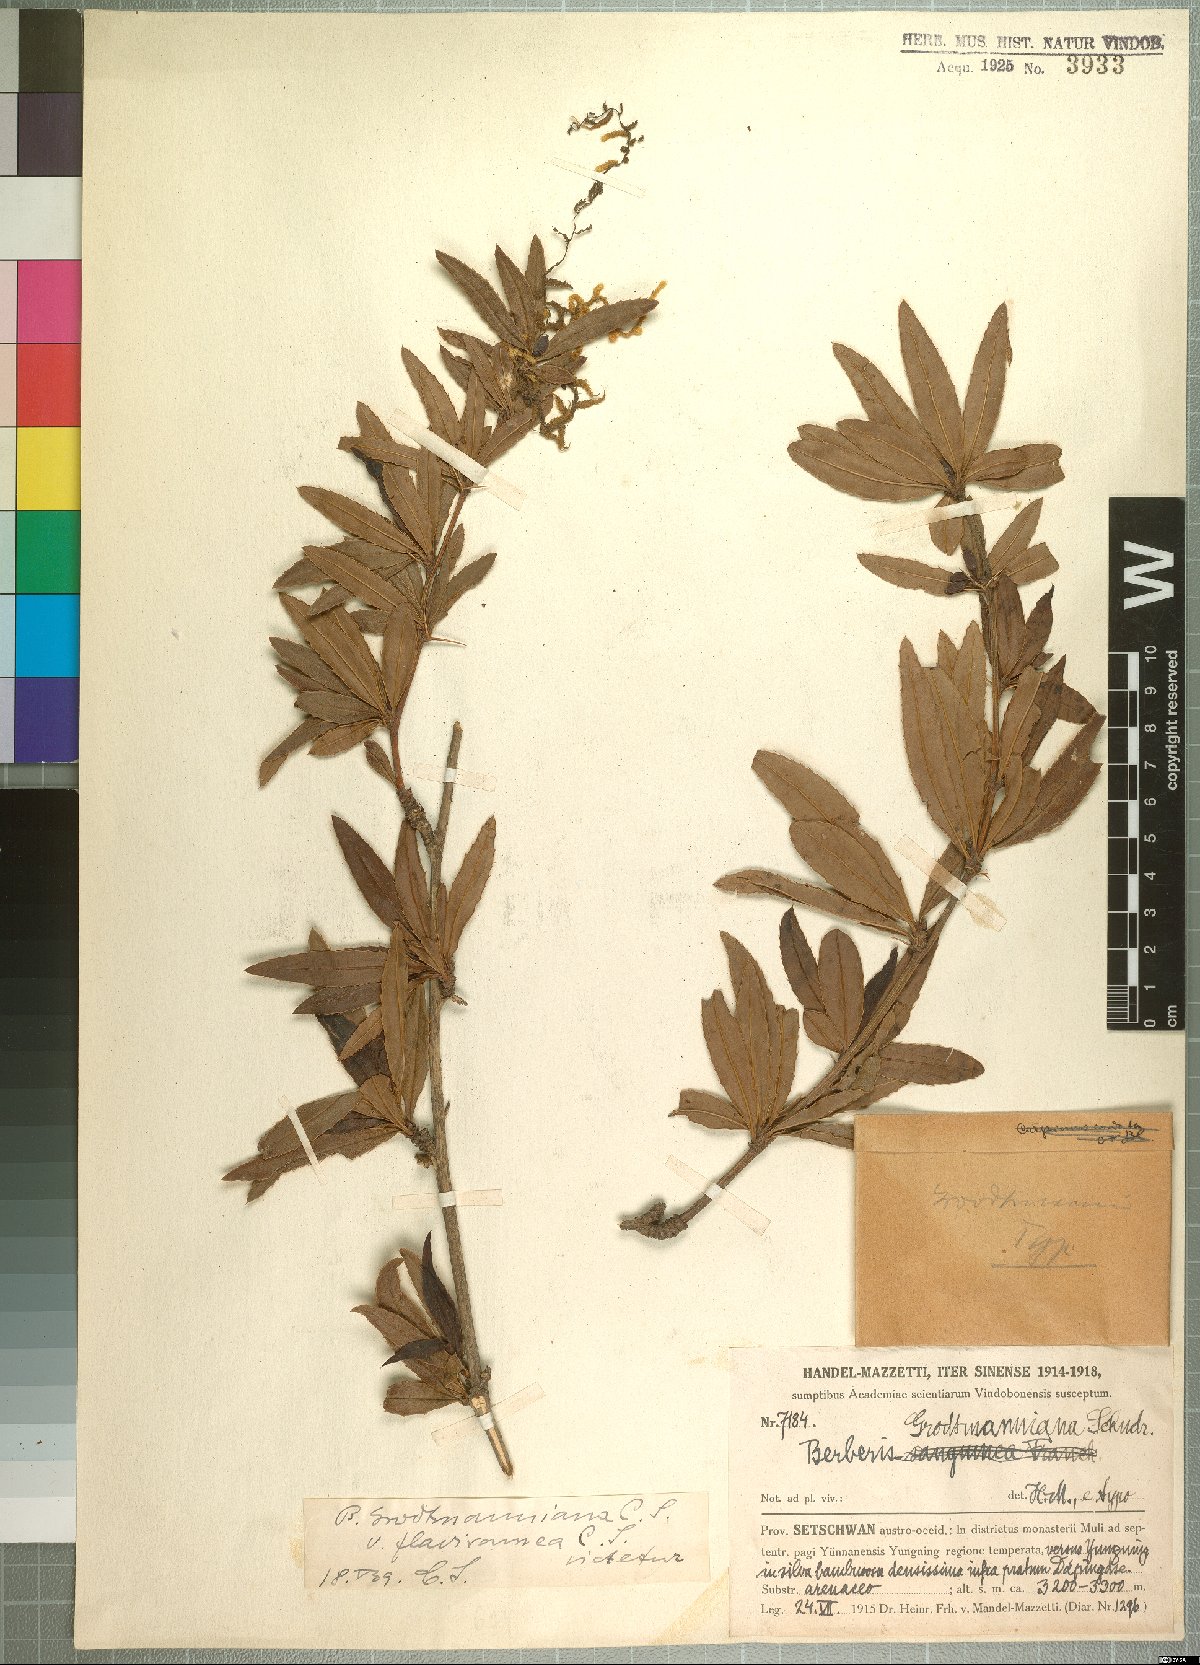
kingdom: Plantae
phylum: Tracheophyta
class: Magnoliopsida
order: Ranunculales
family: Berberidaceae
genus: Berberis
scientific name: Berberis grodtmanniana
